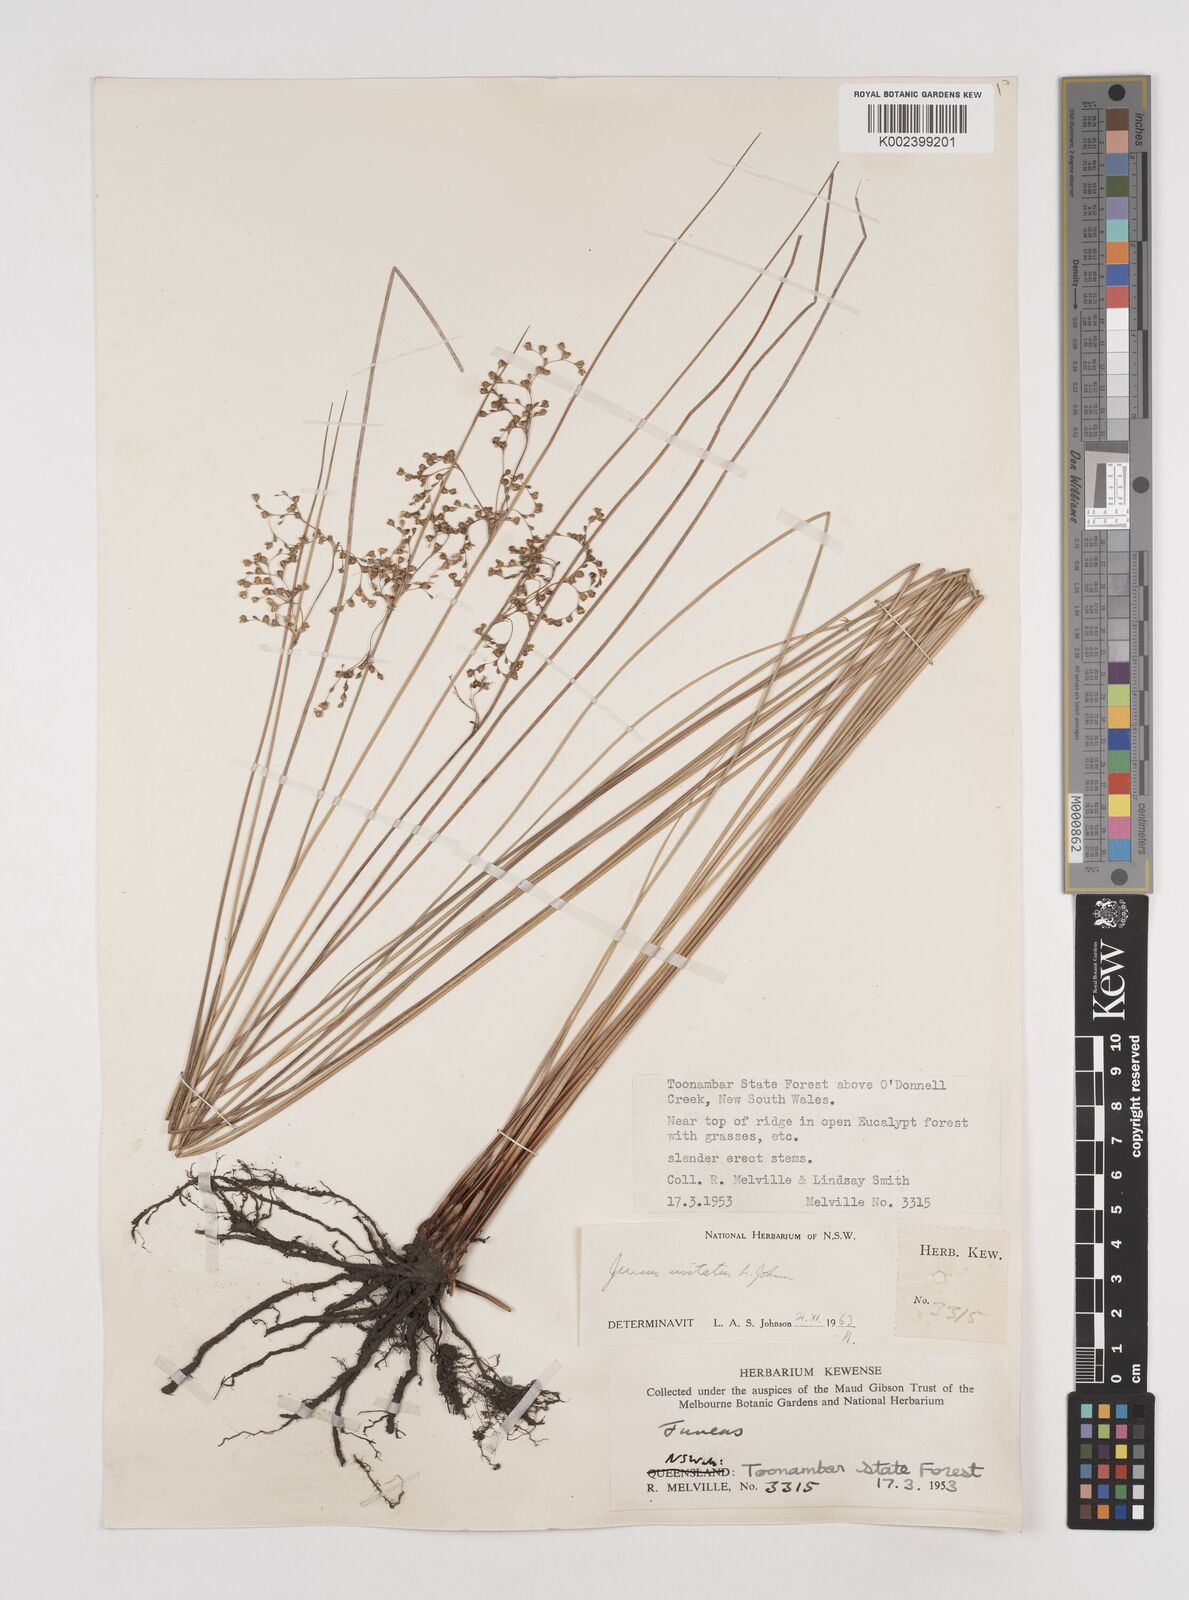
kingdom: Plantae
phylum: Tracheophyta
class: Liliopsida
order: Poales
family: Juncaceae
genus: Juncus
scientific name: Juncus usitatus
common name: Rush
